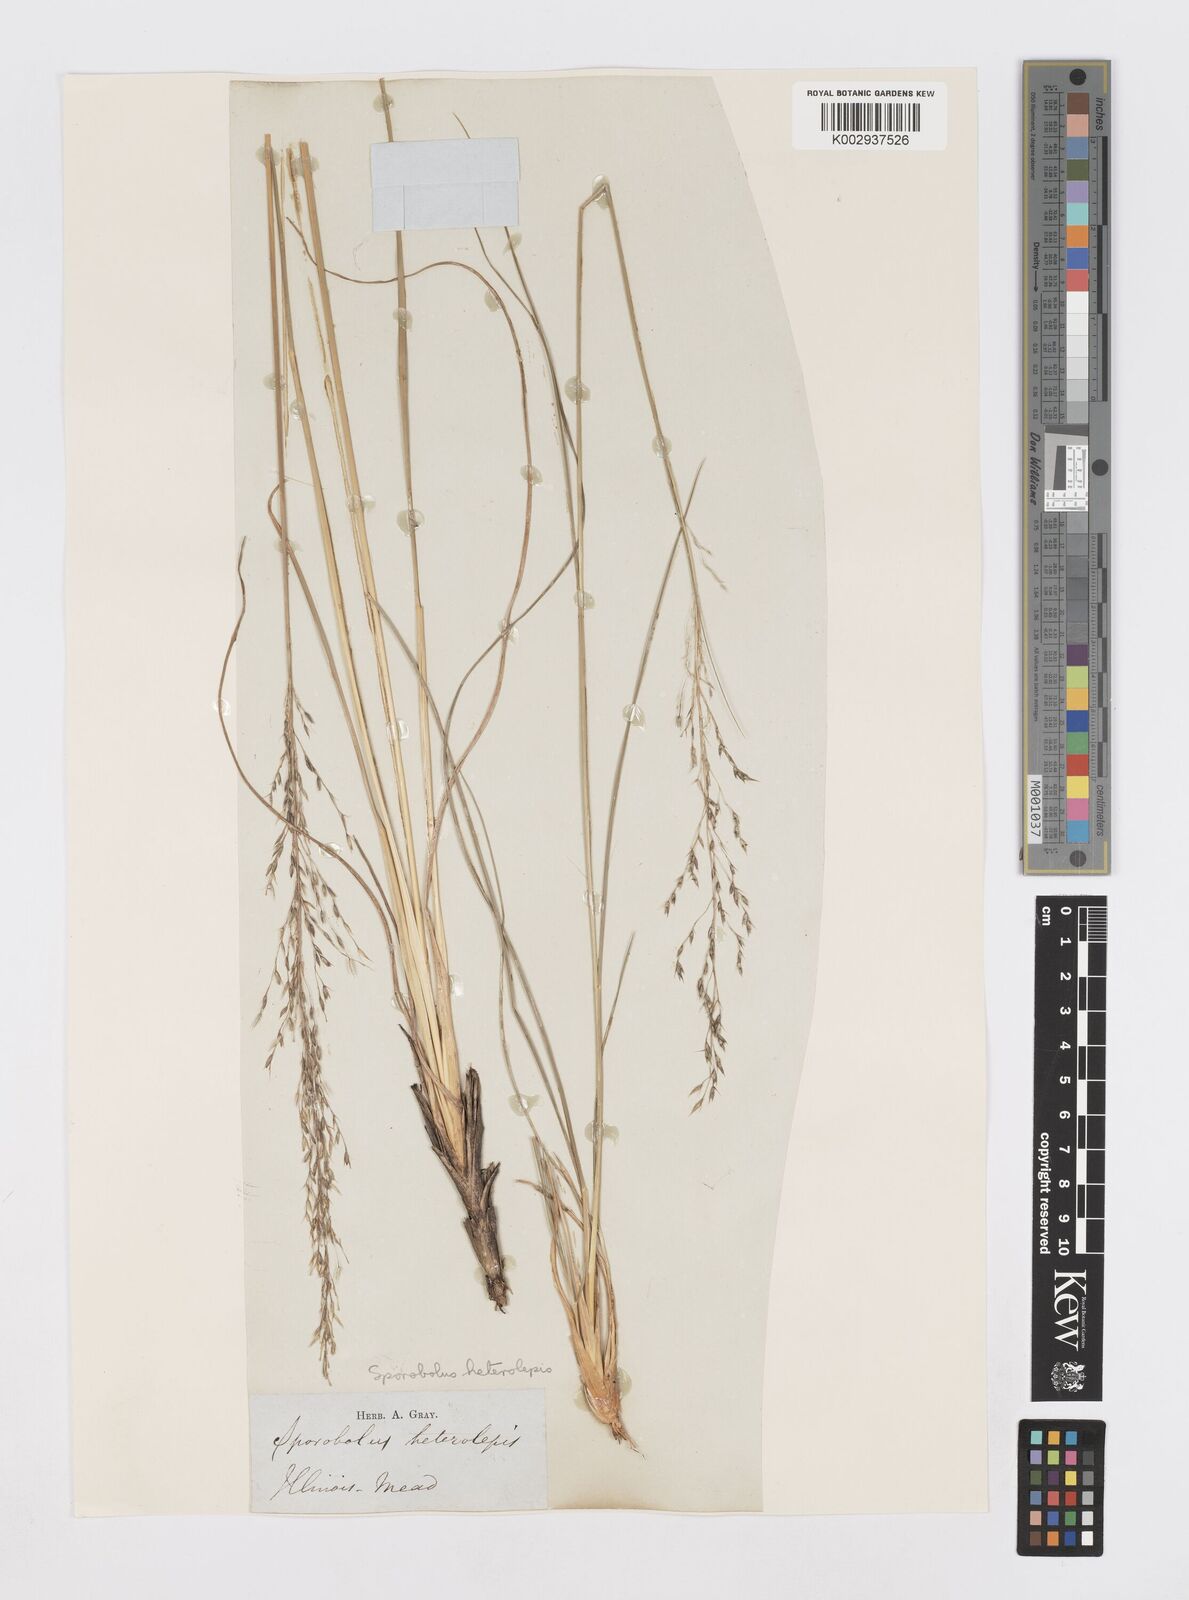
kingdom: Plantae
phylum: Tracheophyta
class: Liliopsida
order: Poales
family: Poaceae
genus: Sporobolus
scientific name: Sporobolus heterolepis
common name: Prairie dropseed
